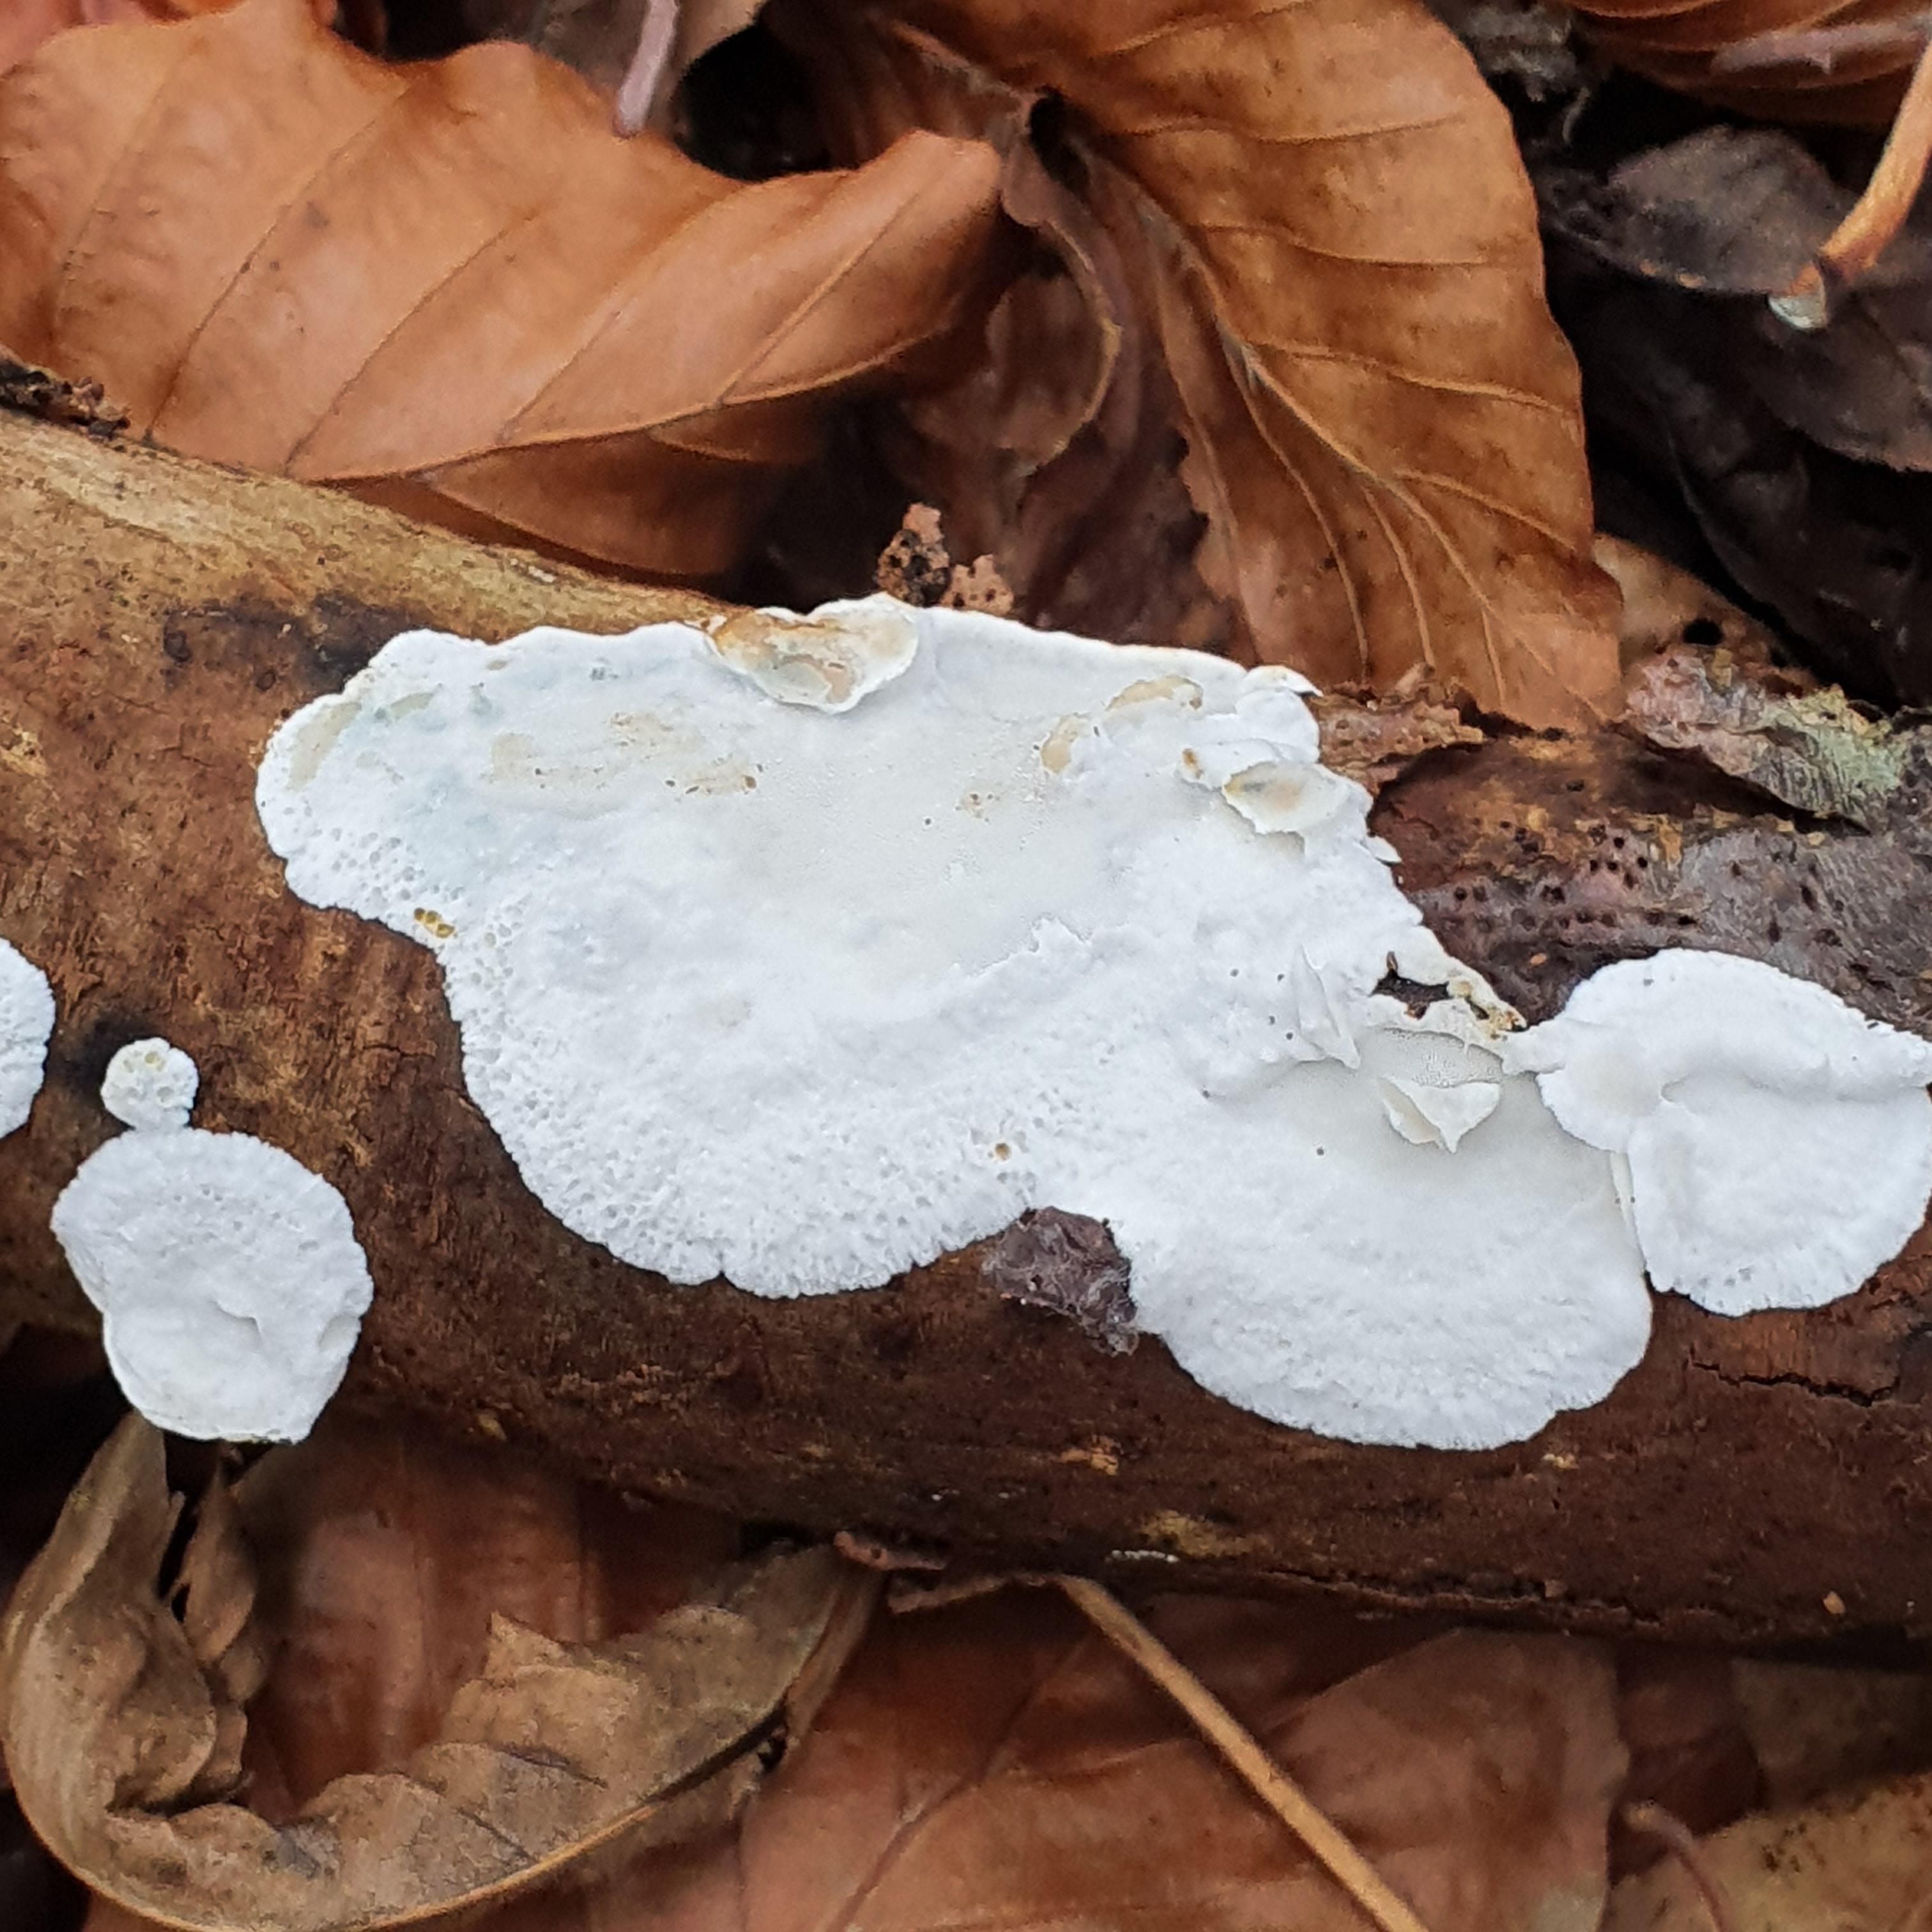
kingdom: Fungi
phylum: Basidiomycota
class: Agaricomycetes
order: Polyporales
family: Incrustoporiaceae
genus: Skeletocutis
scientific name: Skeletocutis nemoralis
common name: stor krystalporesvamp
